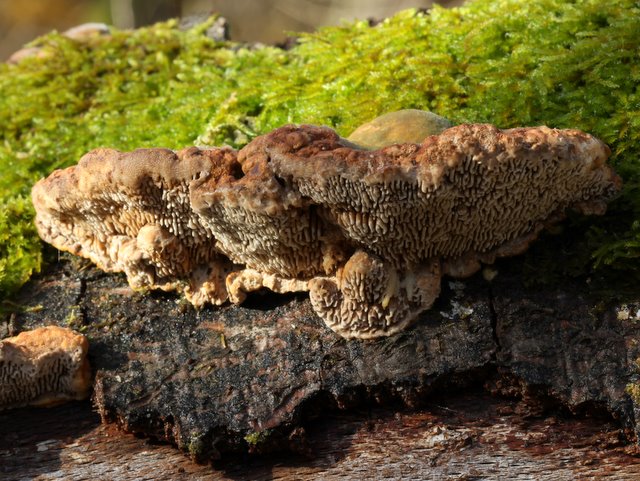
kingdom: Fungi
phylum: Basidiomycota
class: Agaricomycetes
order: Polyporales
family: Polyporaceae
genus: Lenzites
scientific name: Lenzites betulinus
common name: birke-læderporesvamp
